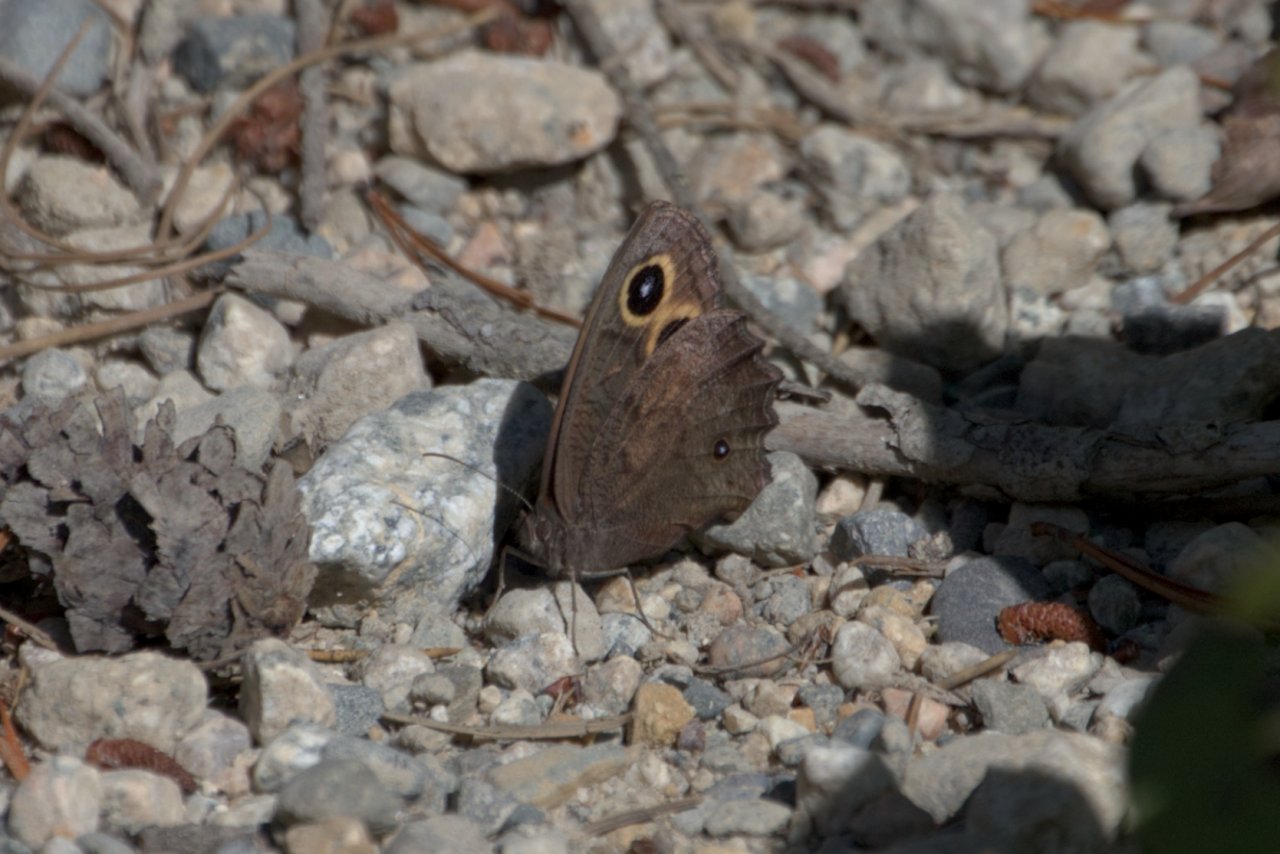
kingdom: Animalia
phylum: Arthropoda
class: Insecta
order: Lepidoptera
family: Nymphalidae
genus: Cercyonis
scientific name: Cercyonis pegala
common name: Common Wood-Nymph
